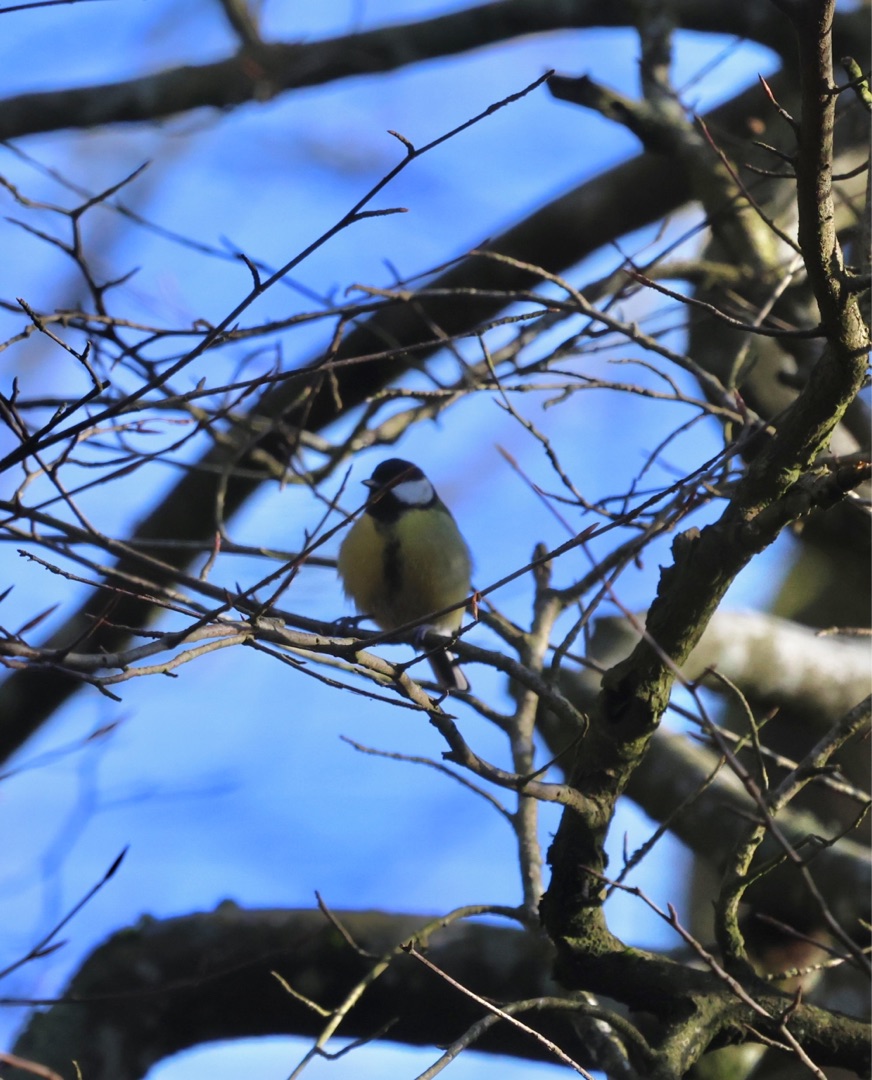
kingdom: Animalia
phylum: Chordata
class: Aves
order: Passeriformes
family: Paridae
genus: Parus
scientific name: Parus major
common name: Musvit
